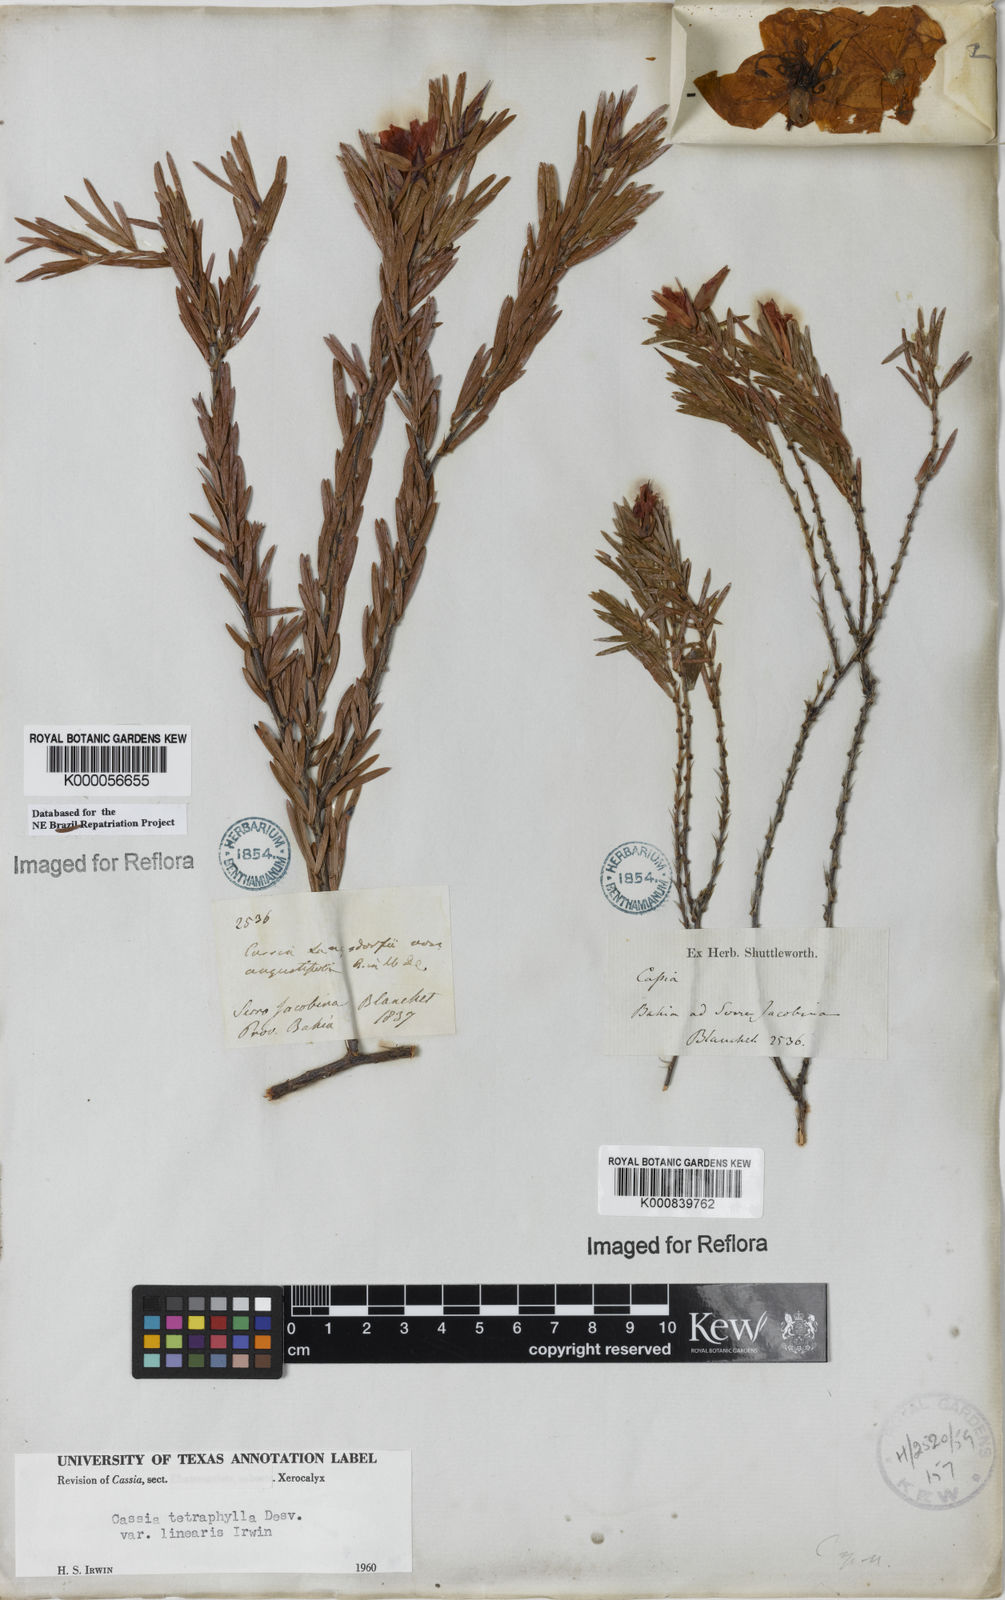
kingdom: Plantae
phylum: Tracheophyta
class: Magnoliopsida
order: Fabales
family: Fabaceae
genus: Chamaecrista
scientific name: Chamaecrista desvauxii
